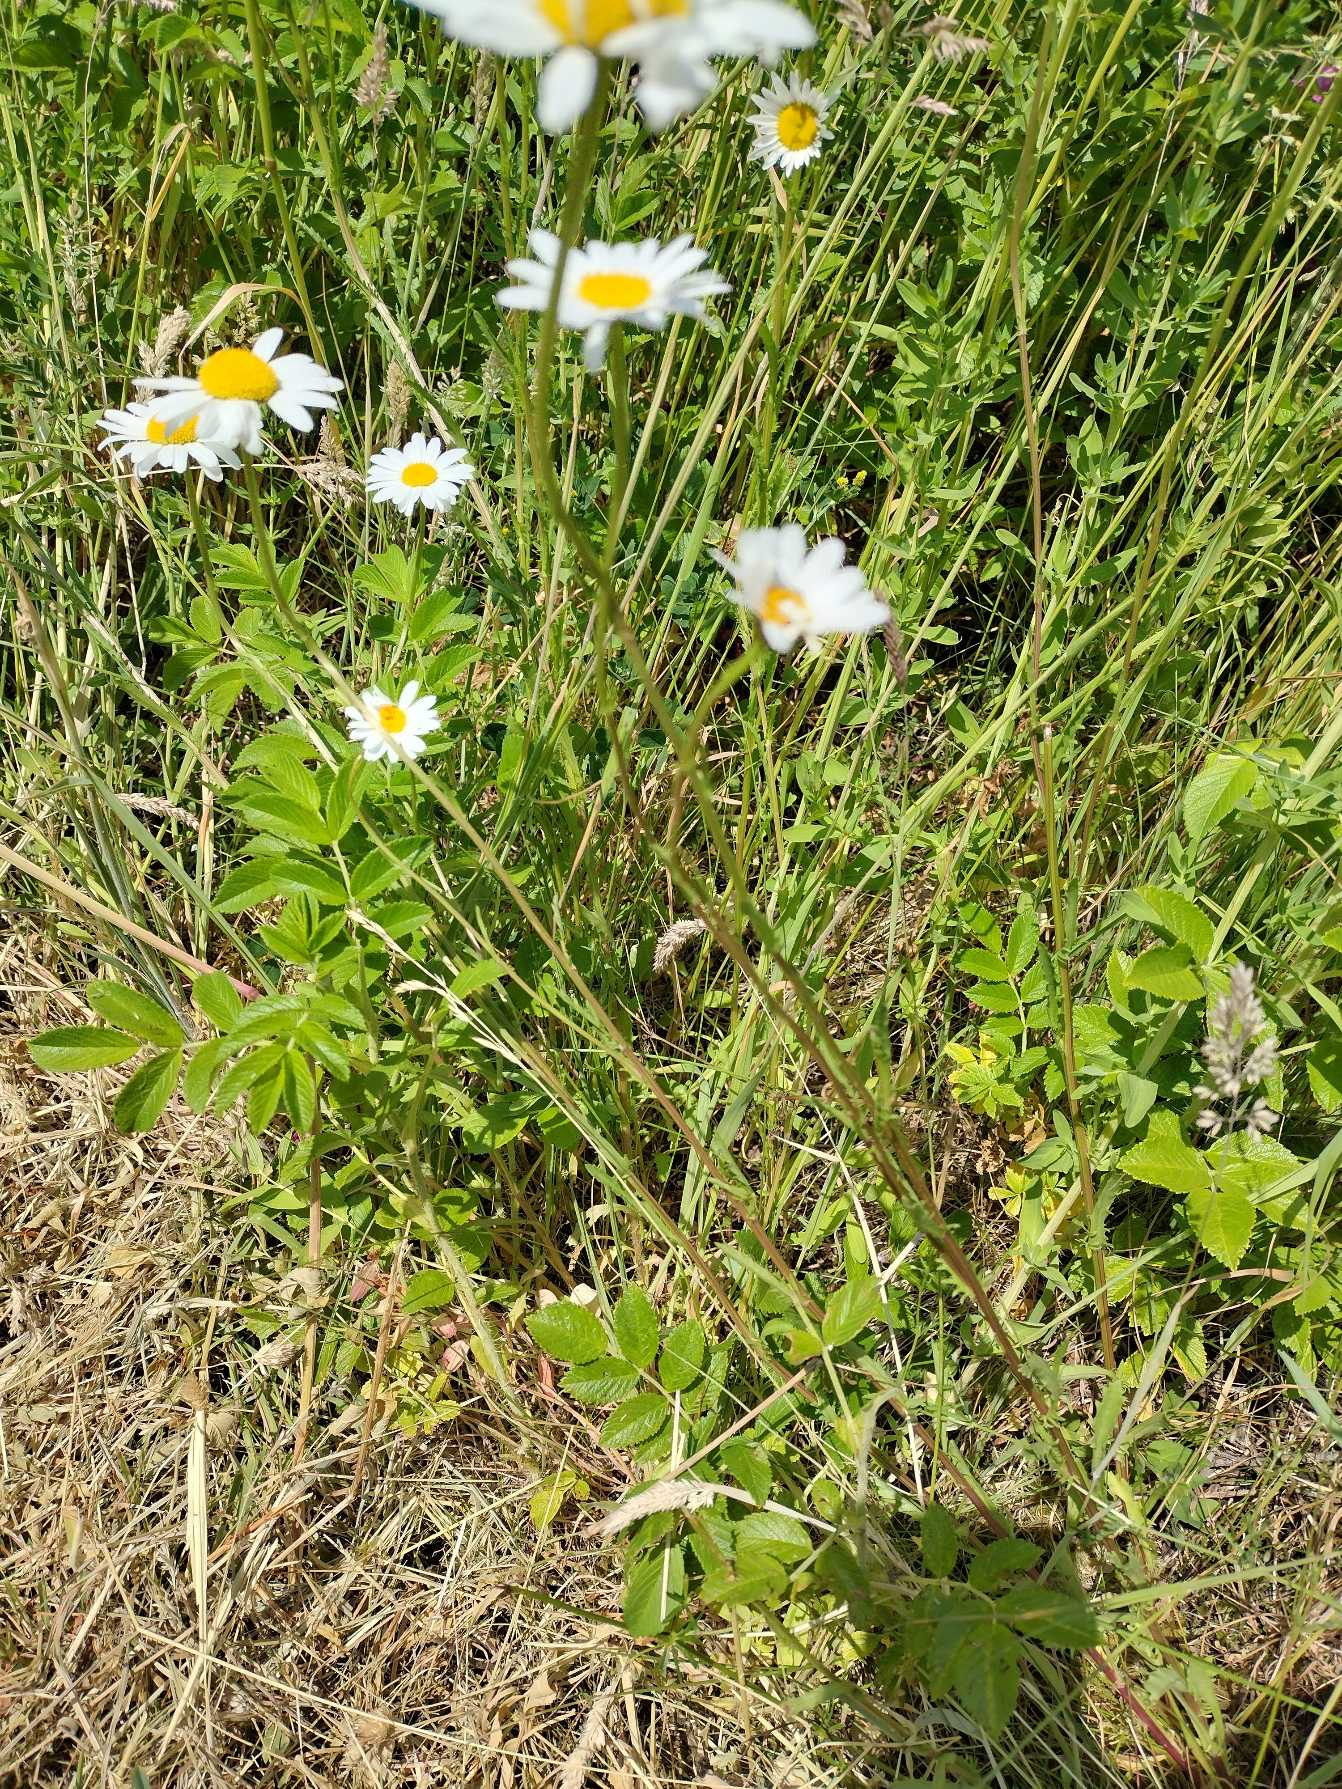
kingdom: Plantae
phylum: Tracheophyta
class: Magnoliopsida
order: Asterales
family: Asteraceae
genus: Leucanthemum
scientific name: Leucanthemum vulgare
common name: Hvid okseøje
